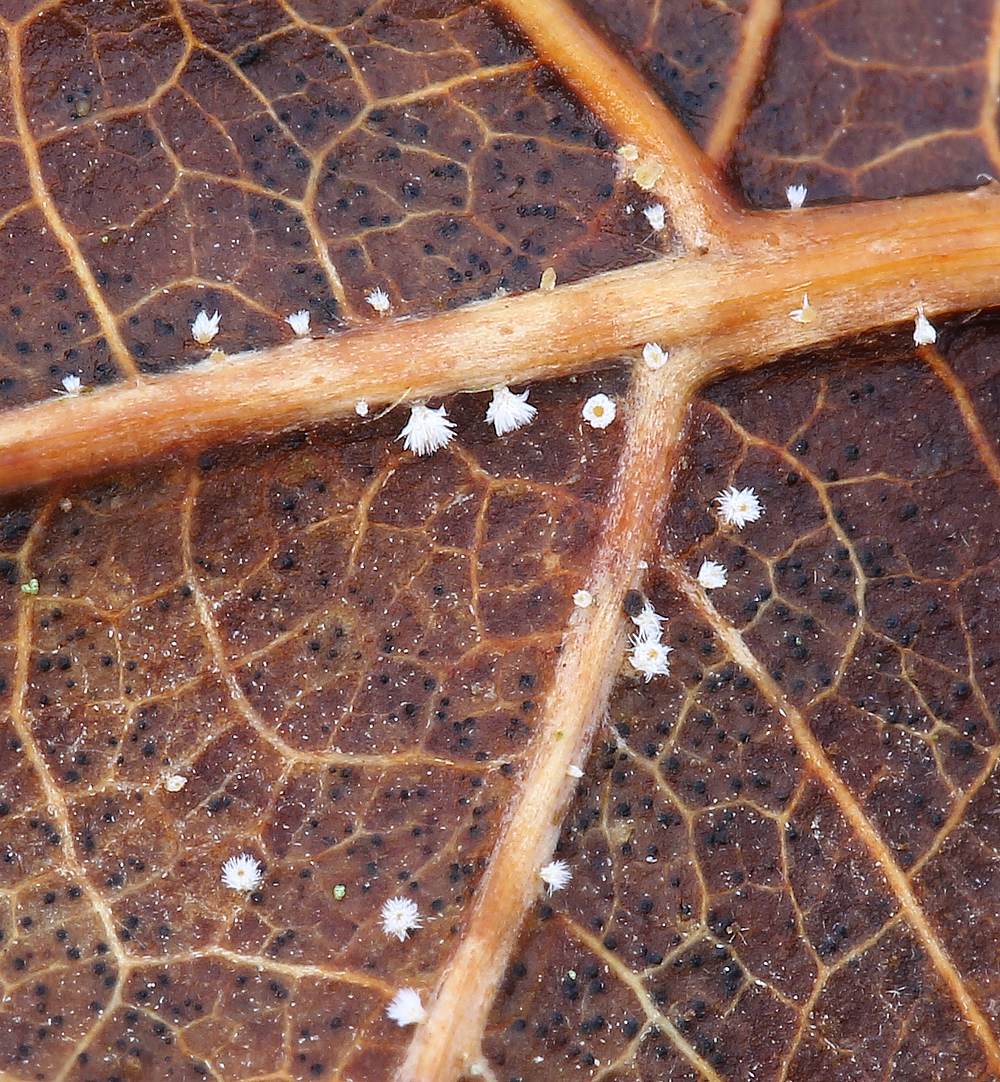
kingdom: Fungi
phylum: Ascomycota
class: Leotiomycetes
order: Helotiales
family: Lachnaceae
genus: Lachnum
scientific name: Lachnum rhytismatis
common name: blad-frynseskive
